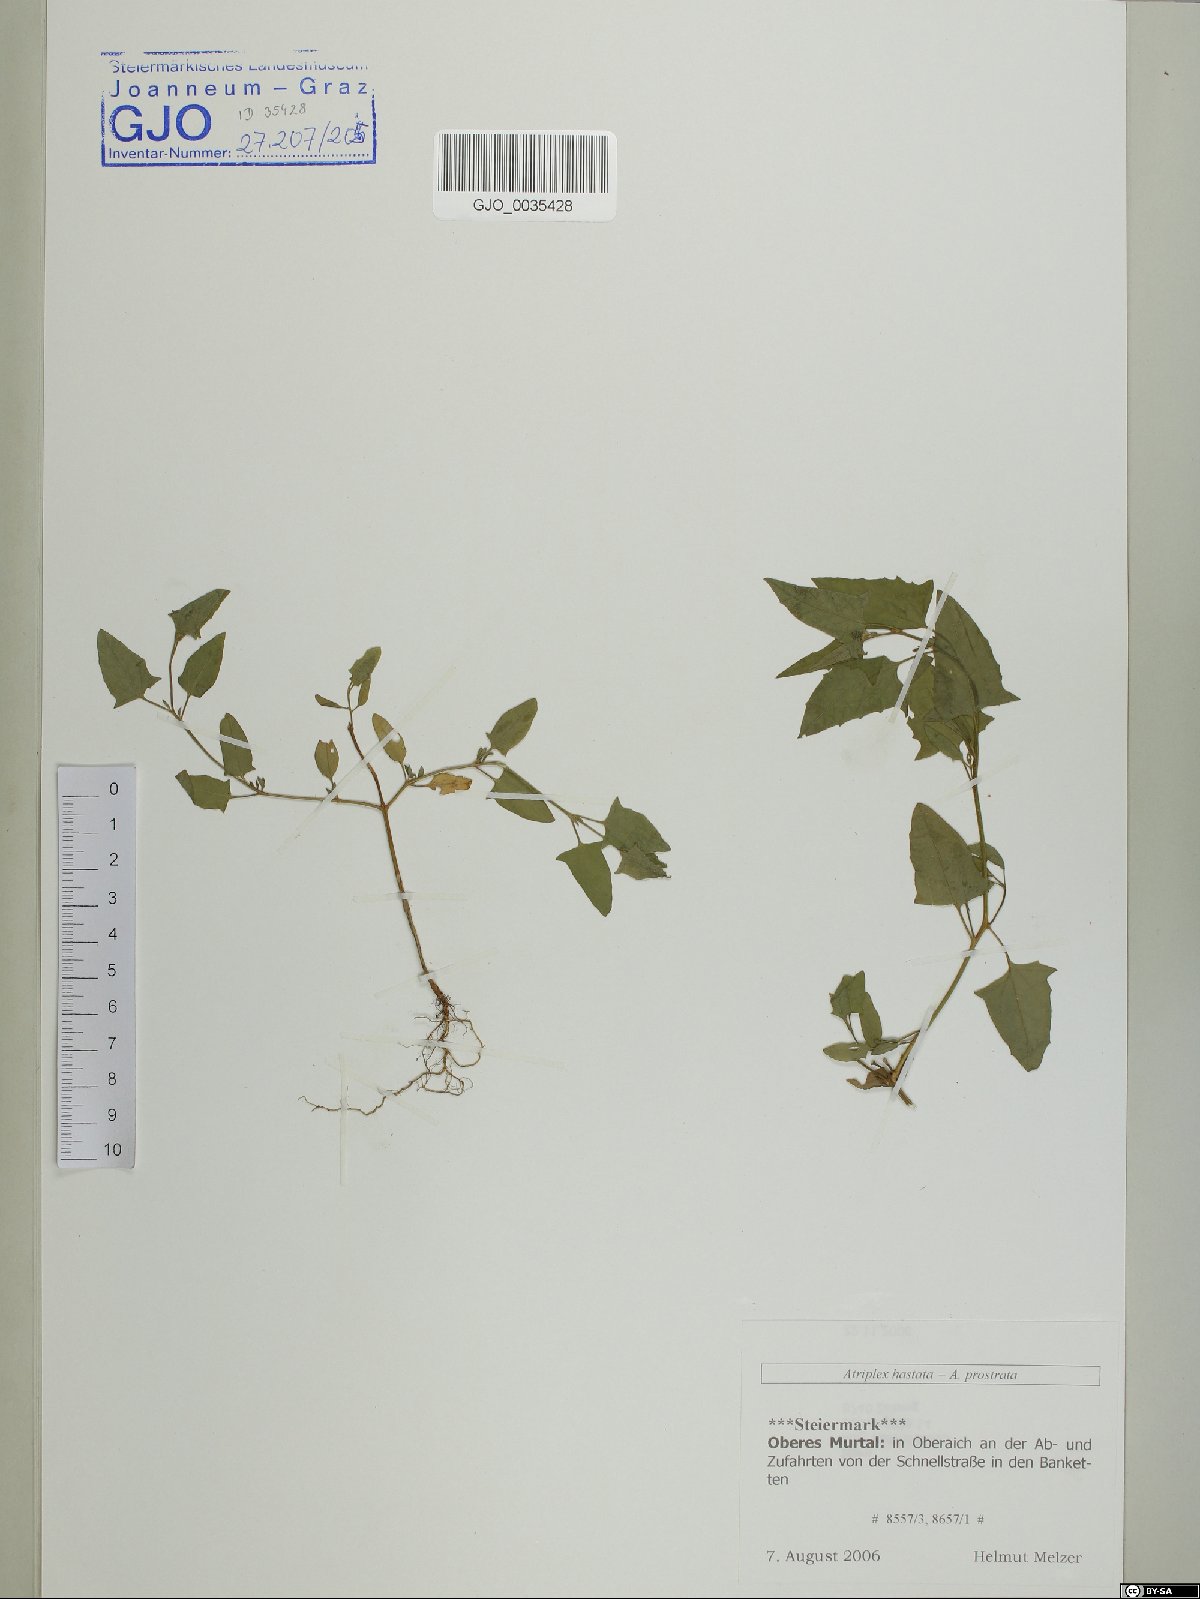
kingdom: Plantae
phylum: Tracheophyta
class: Magnoliopsida
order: Caryophyllales
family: Amaranthaceae
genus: Atriplex
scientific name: Atriplex calotheca
